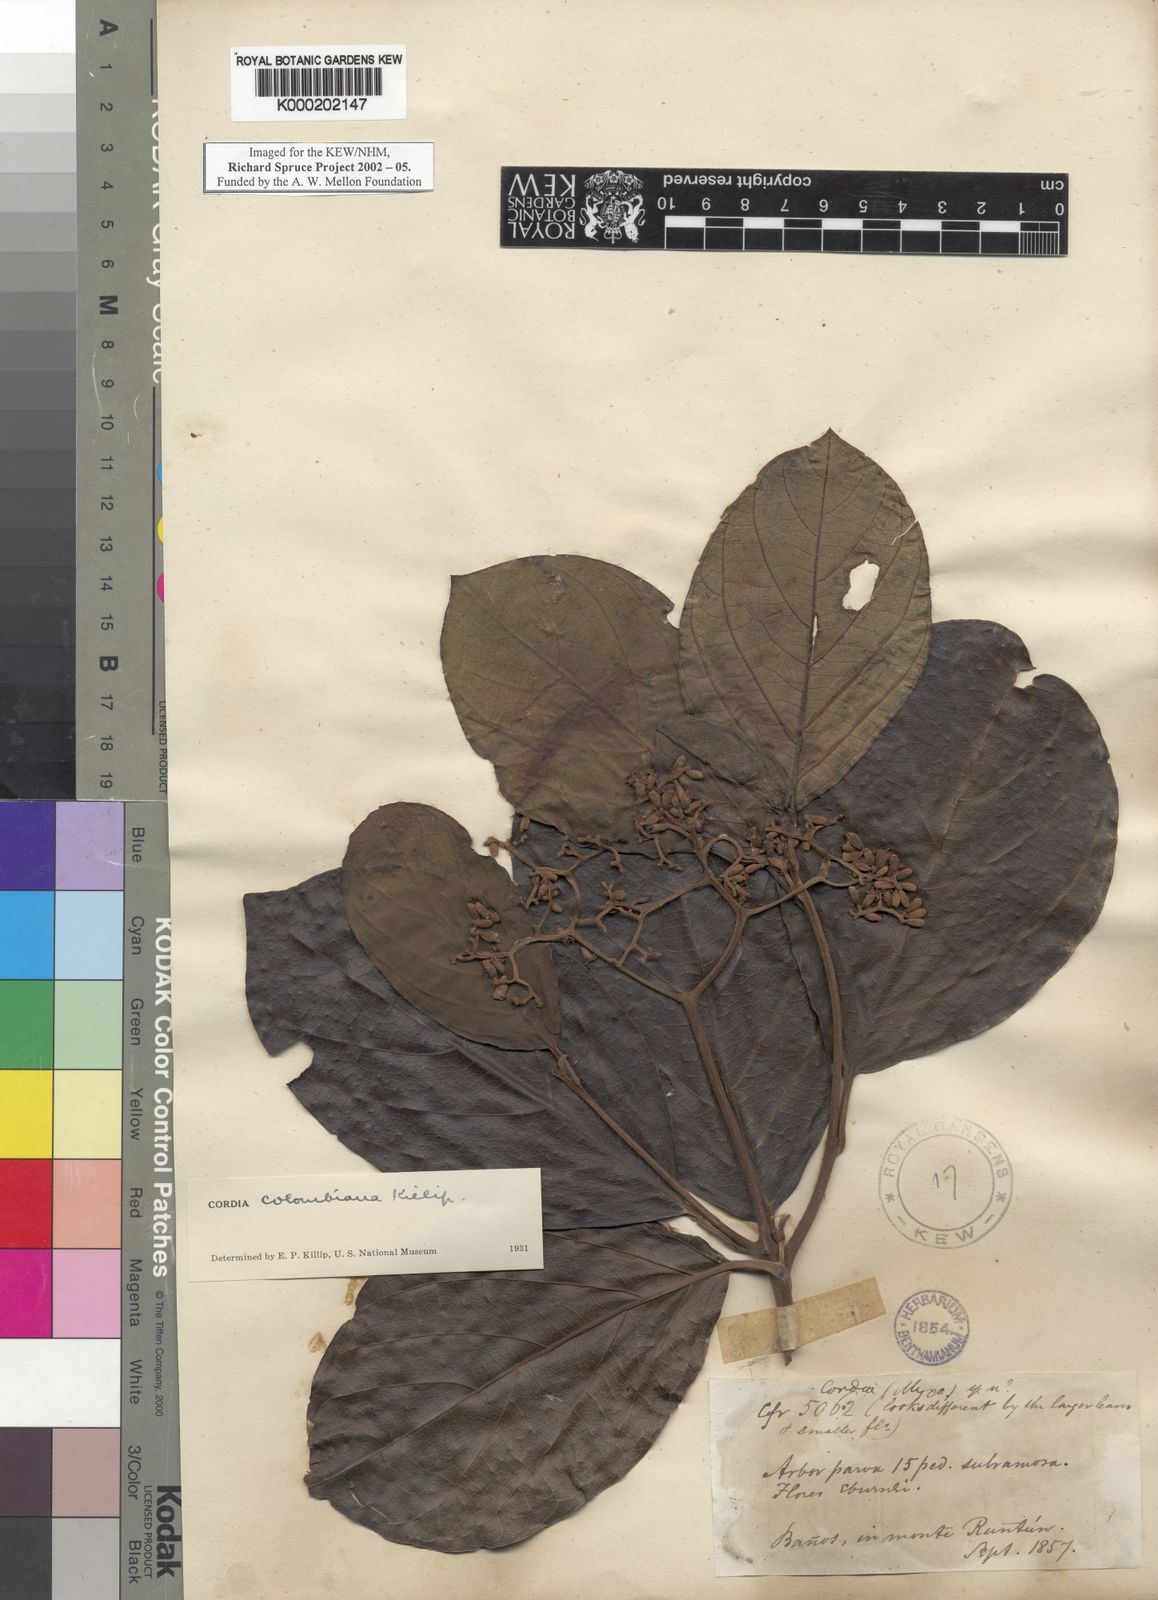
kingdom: Plantae
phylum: Tracheophyta
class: Magnoliopsida
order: Ericales
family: Ericaceae
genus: Disterigma
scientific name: Disterigma acuminatum
